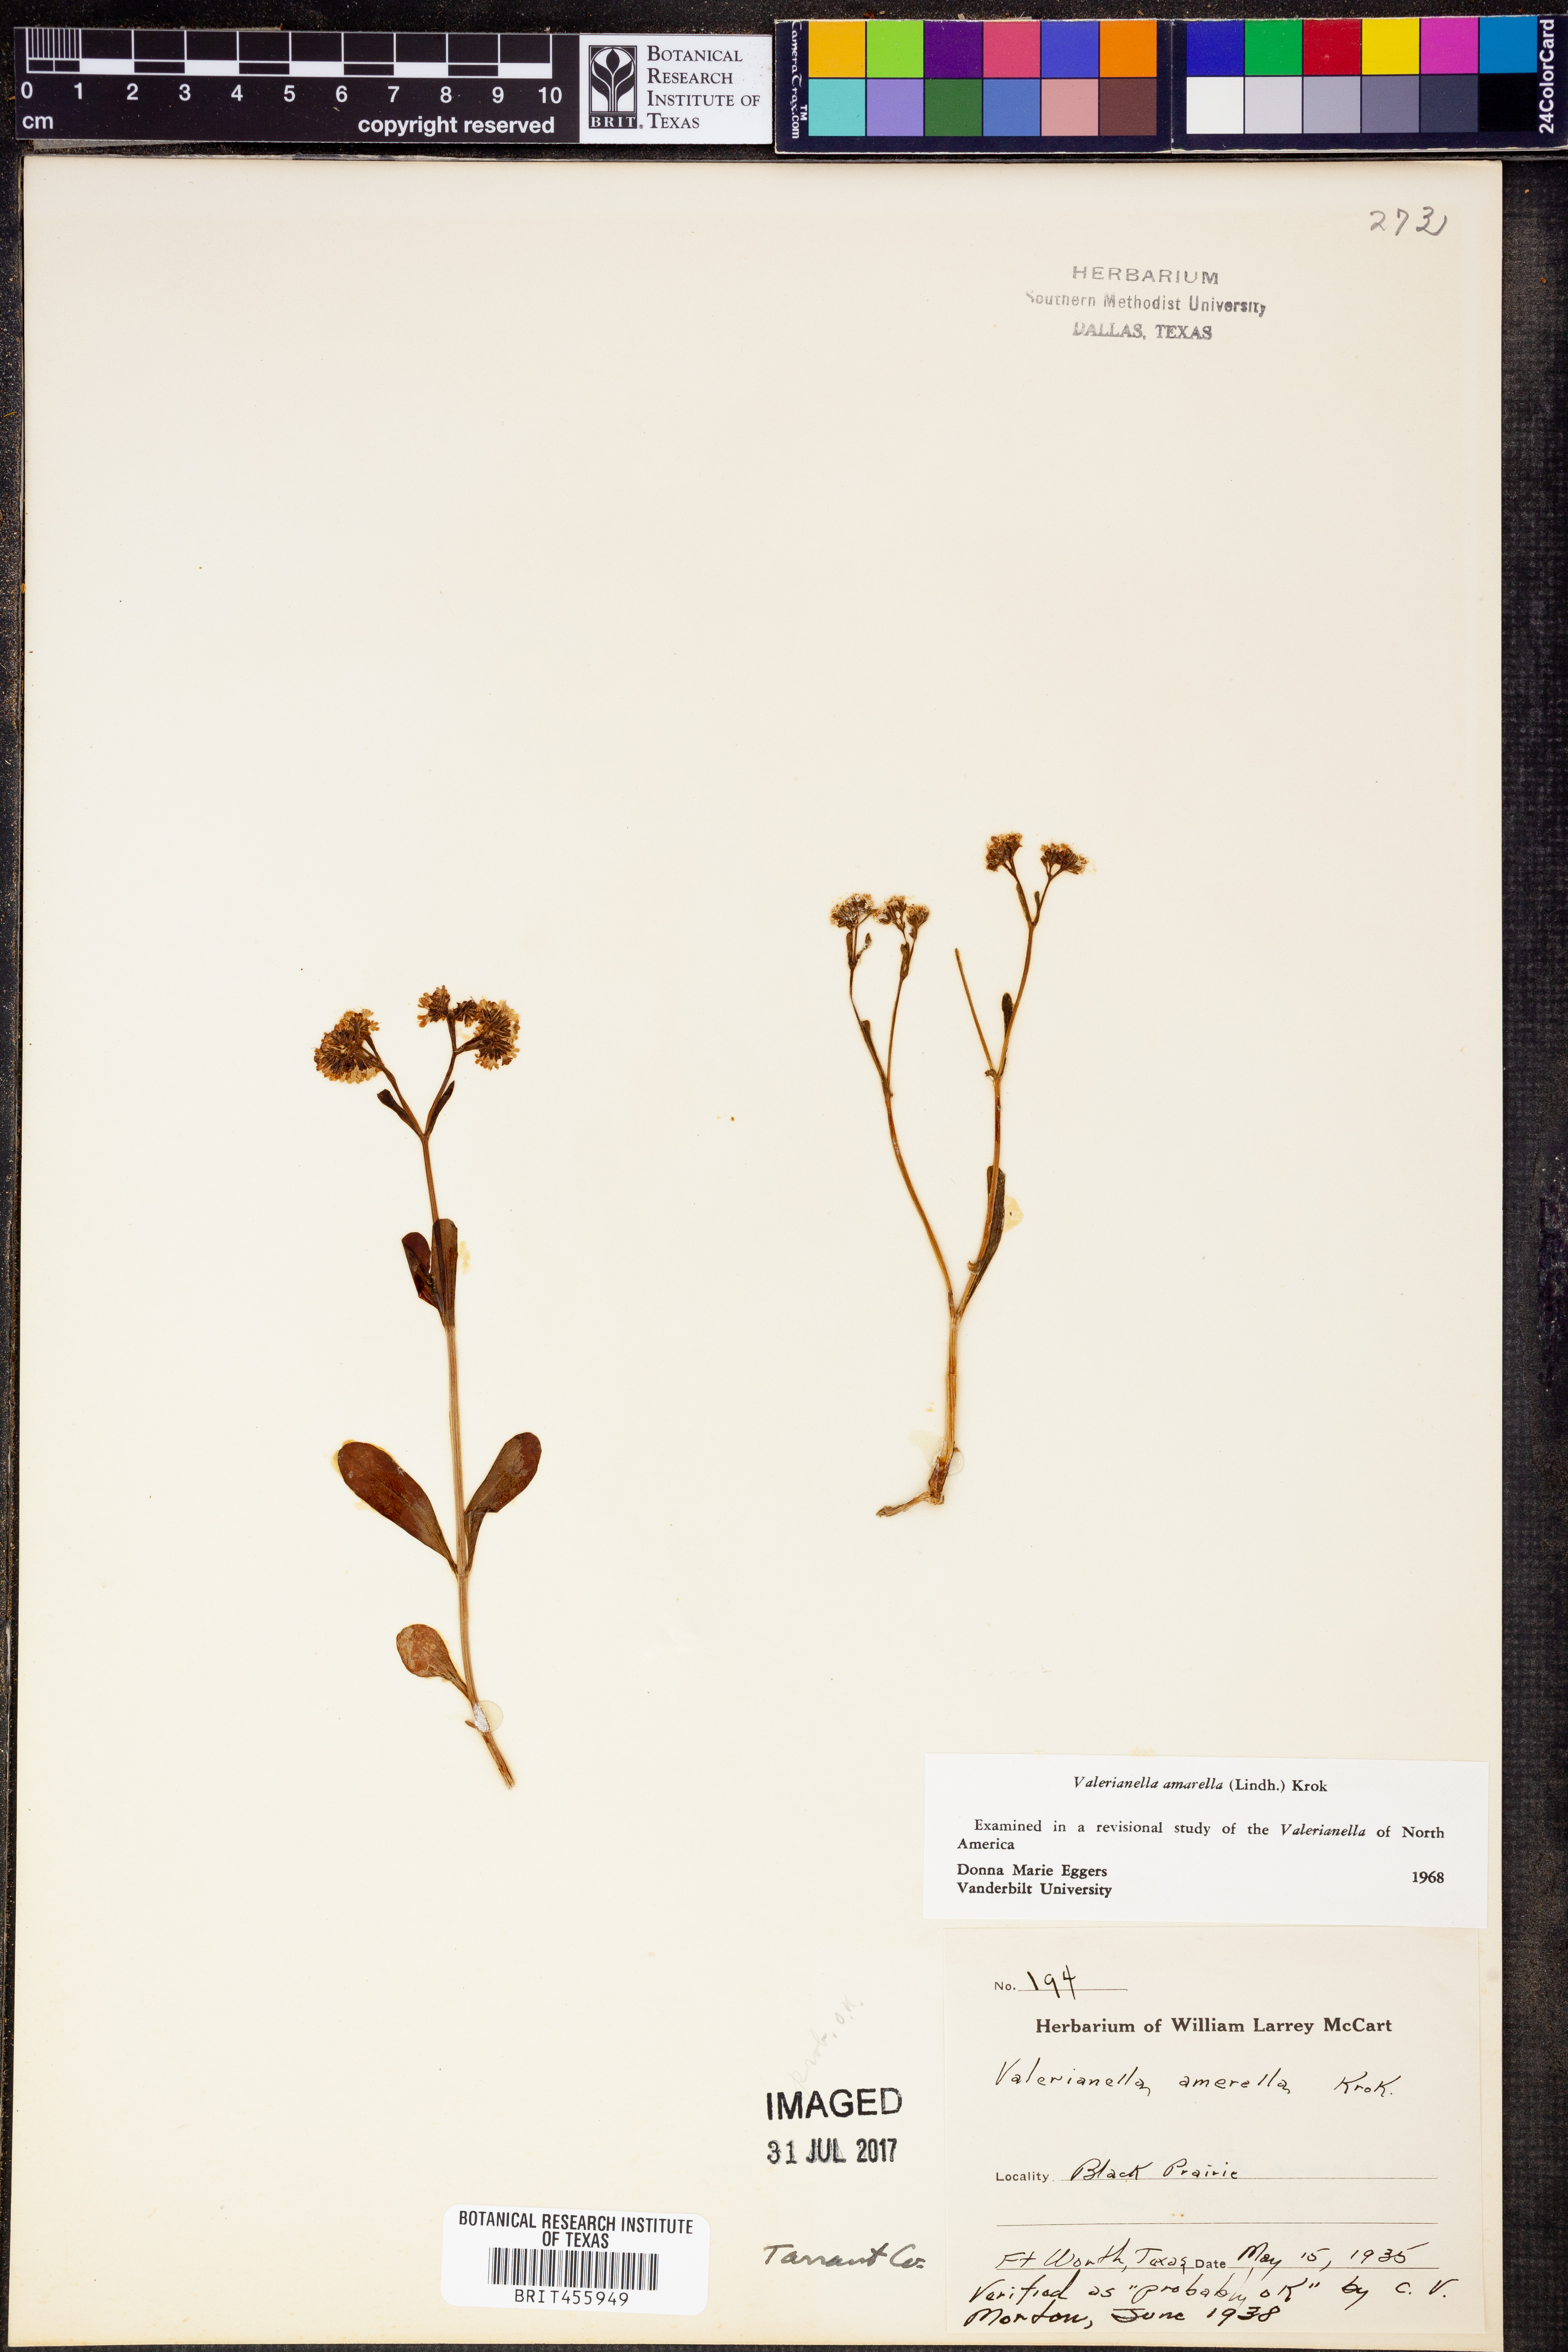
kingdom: Plantae
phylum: Tracheophyta
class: Magnoliopsida
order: Dipsacales
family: Caprifoliaceae
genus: Valerianella
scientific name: Valerianella amarella
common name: Hariy cornsalad
